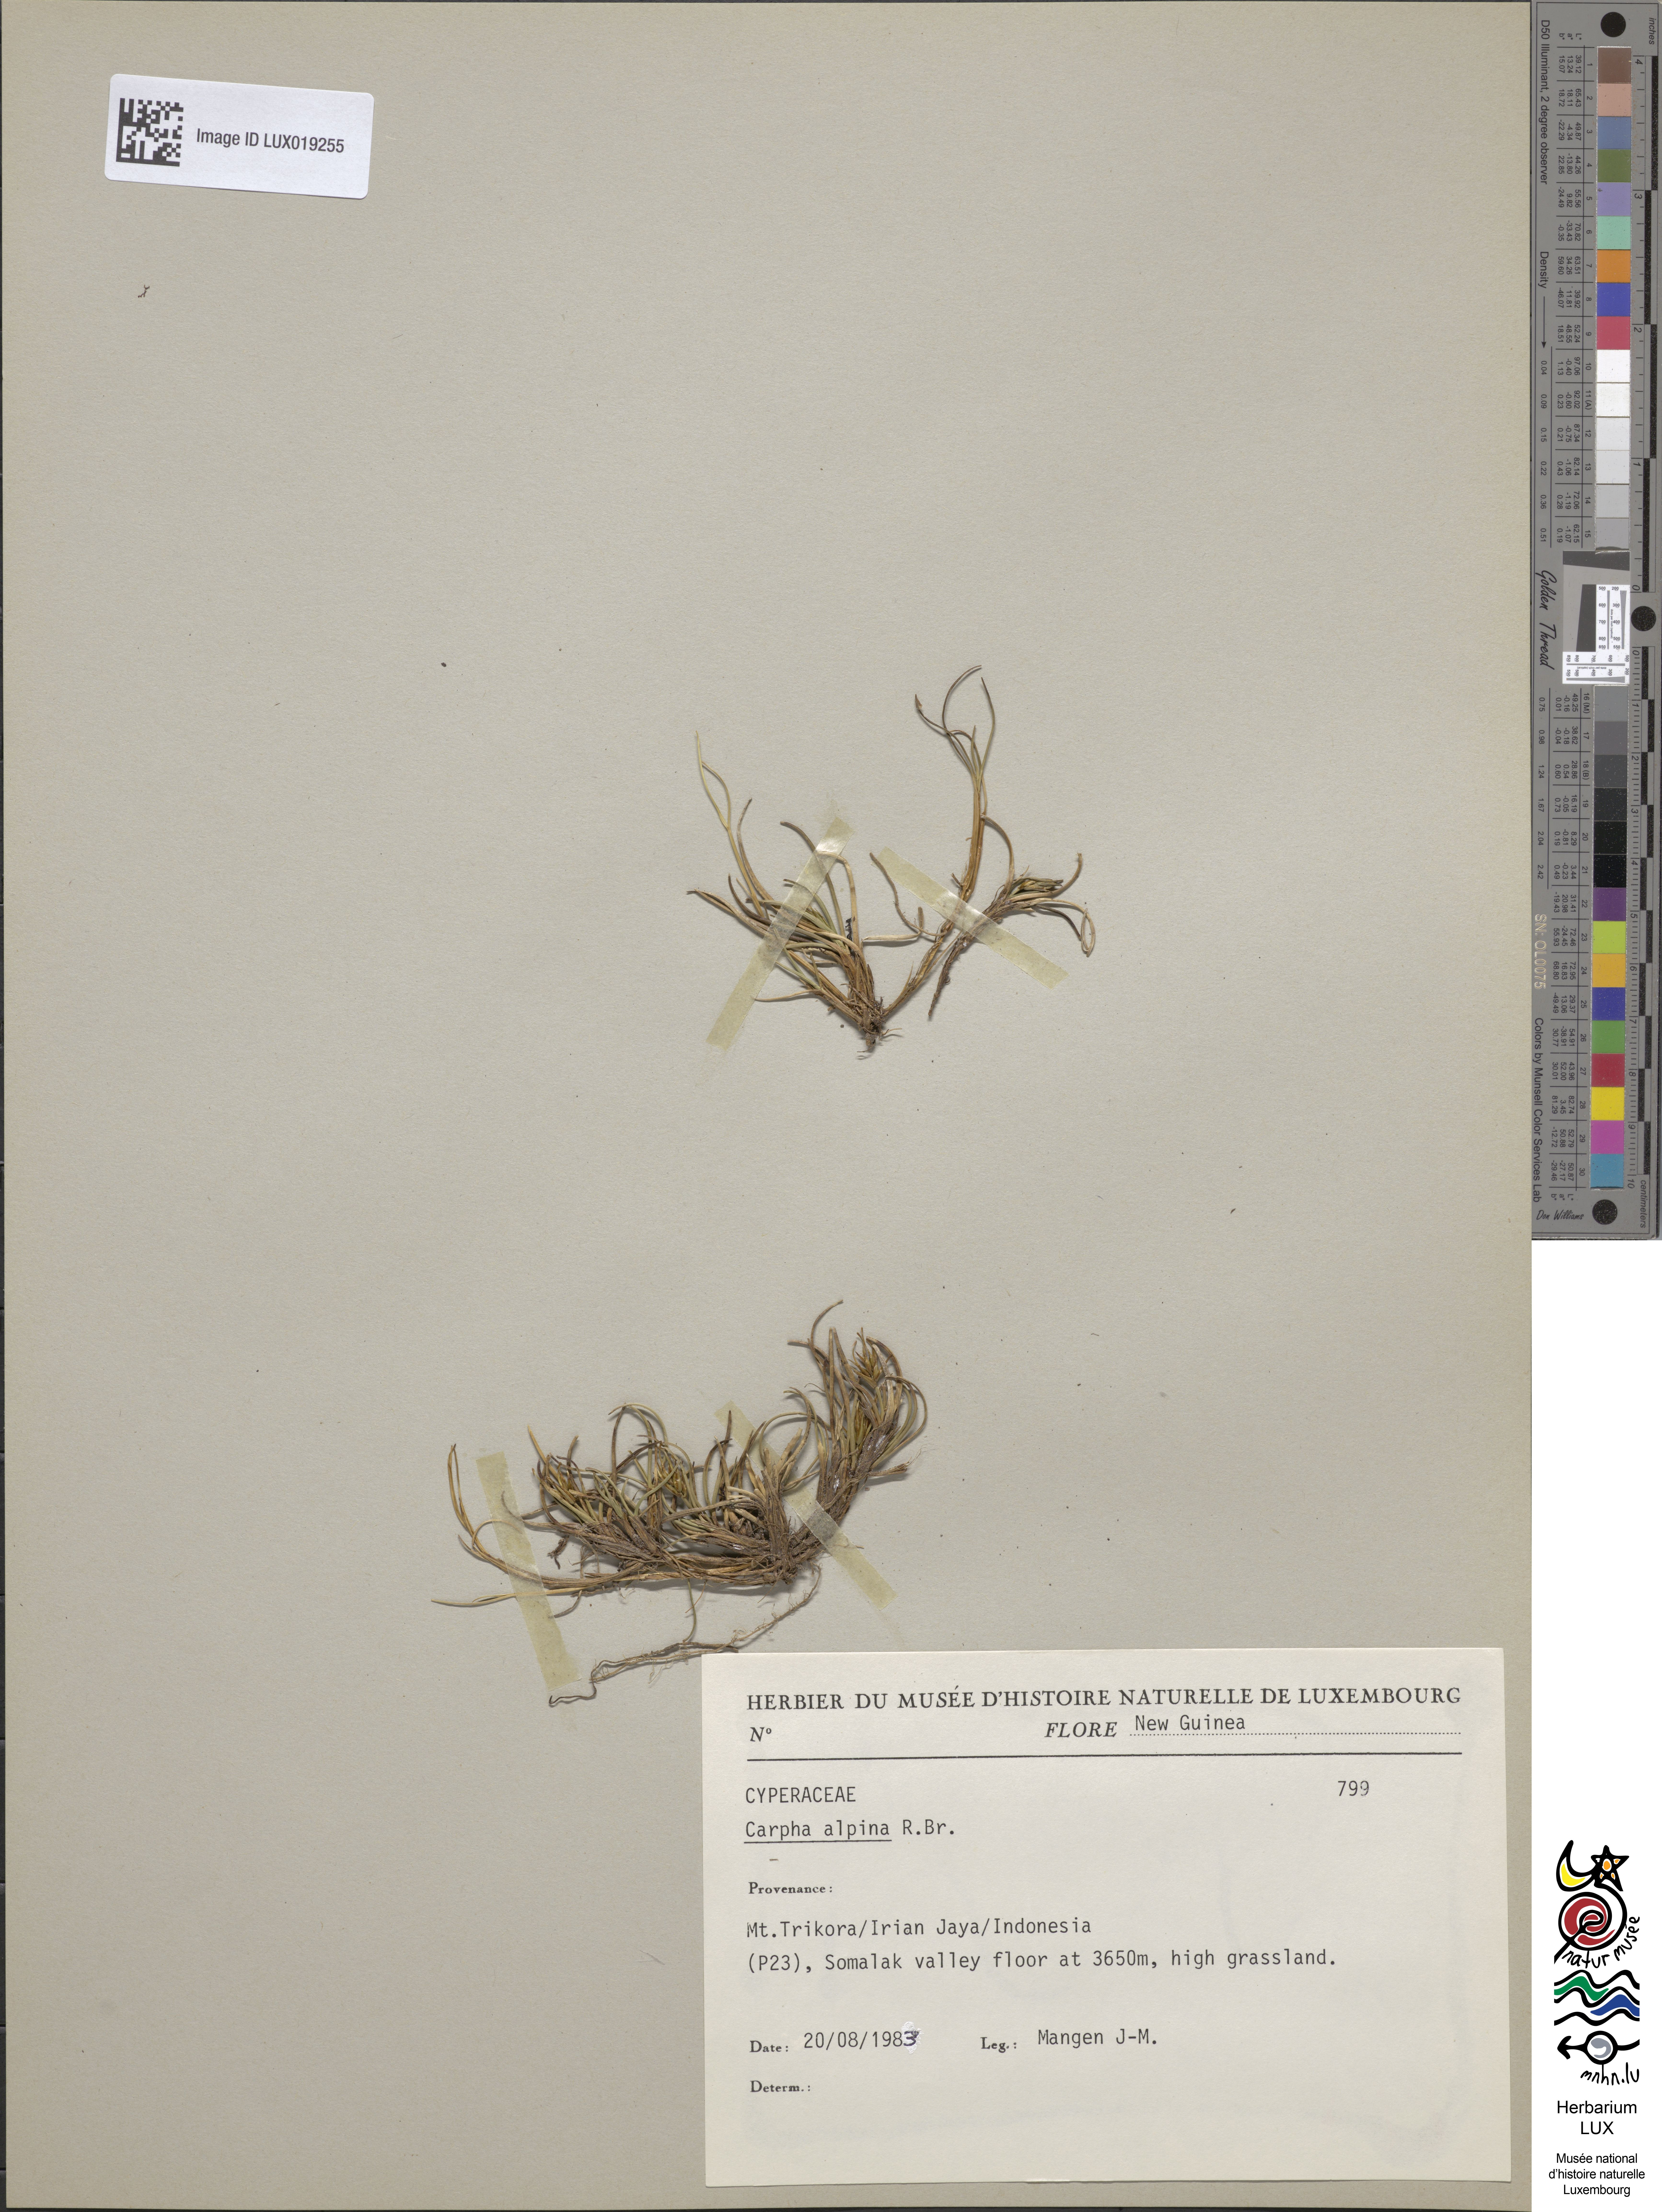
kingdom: Plantae
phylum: Tracheophyta
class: Liliopsida
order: Poales
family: Cyperaceae
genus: Carpha
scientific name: Carpha alpina
